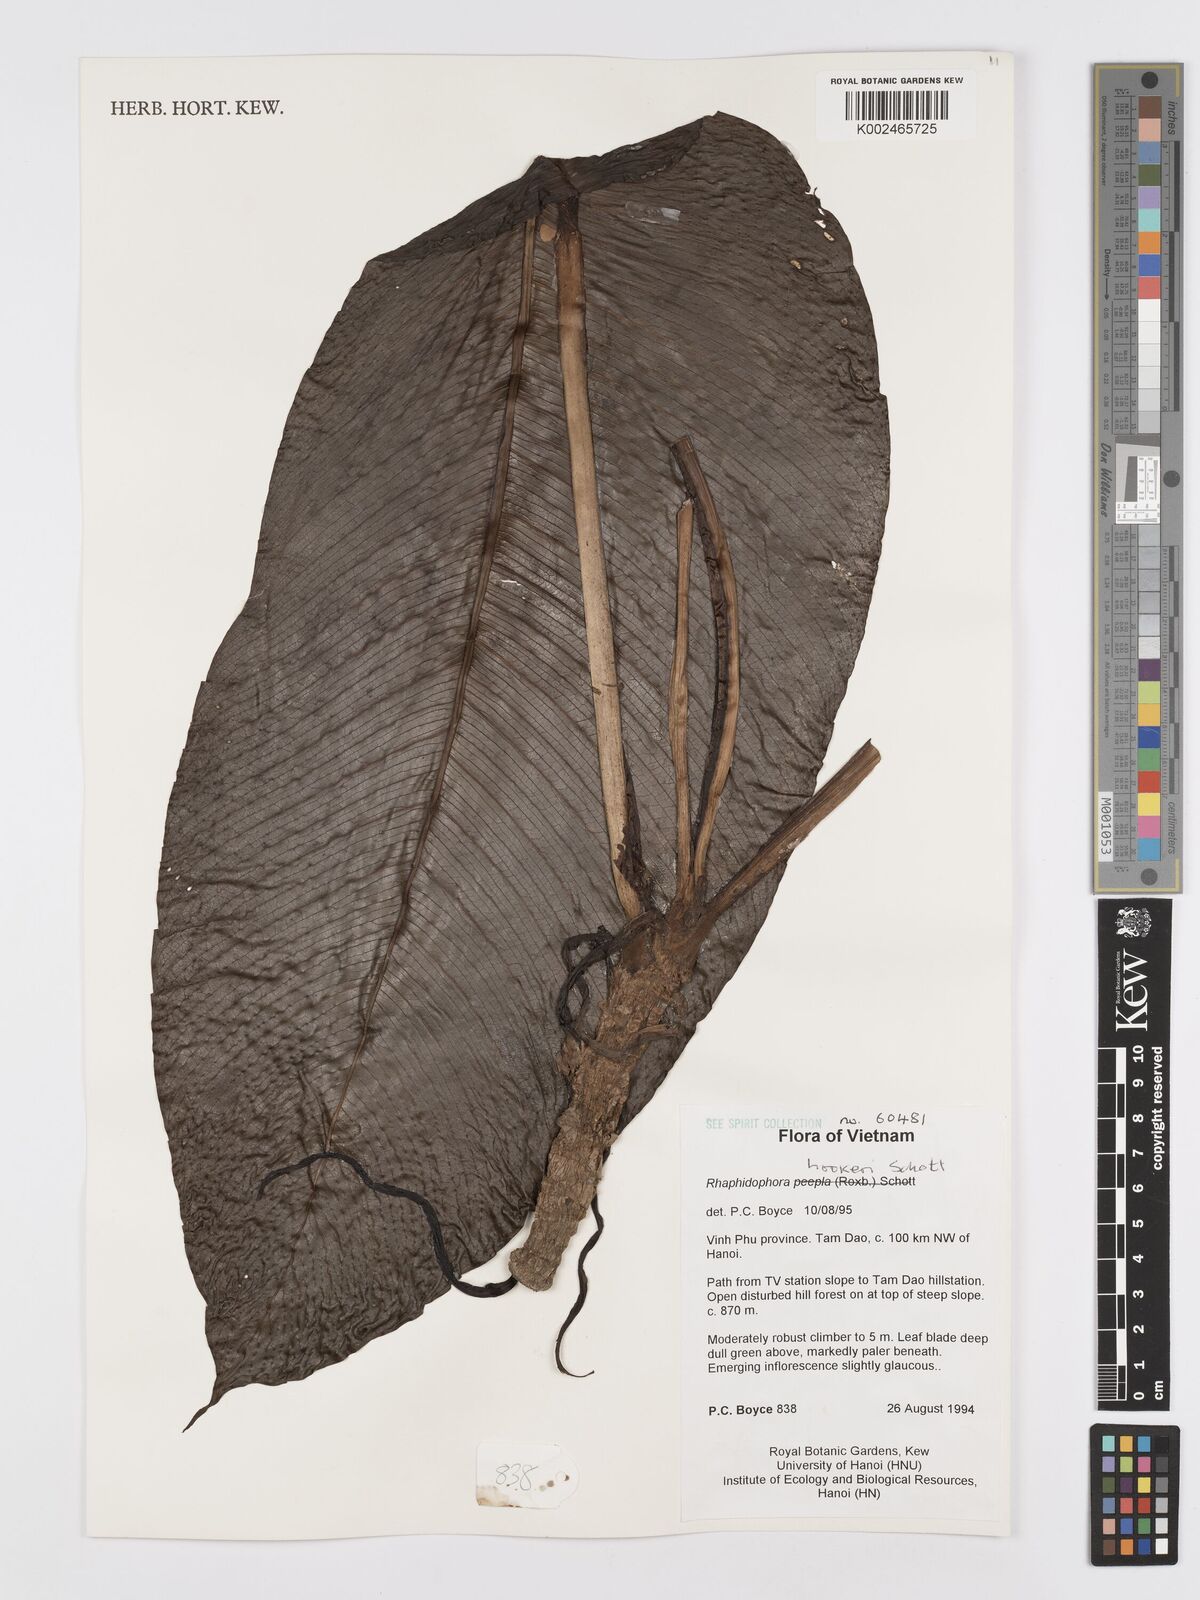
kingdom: Plantae
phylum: Tracheophyta
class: Liliopsida
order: Alismatales
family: Araceae
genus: Rhaphidophora
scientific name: Rhaphidophora hookeri
